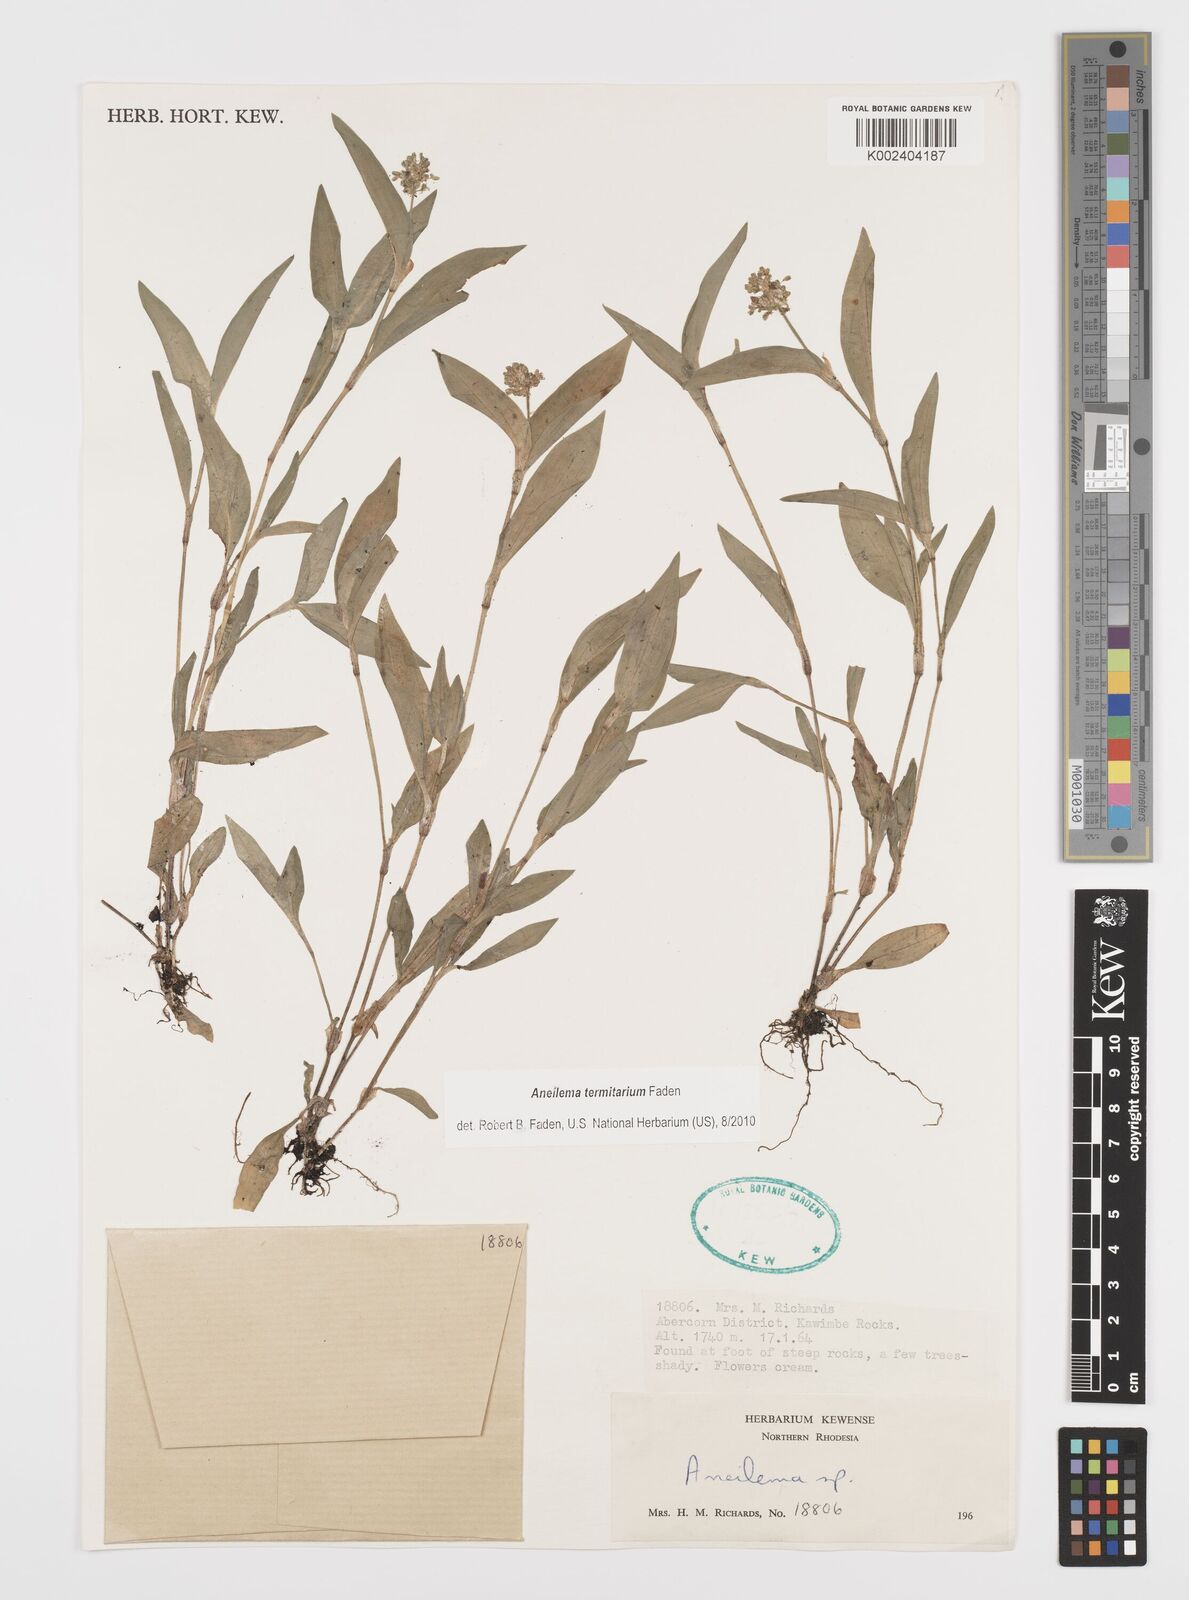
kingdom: Plantae
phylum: Tracheophyta
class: Liliopsida
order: Commelinales
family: Commelinaceae
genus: Aneilema
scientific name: Aneilema termitarium
